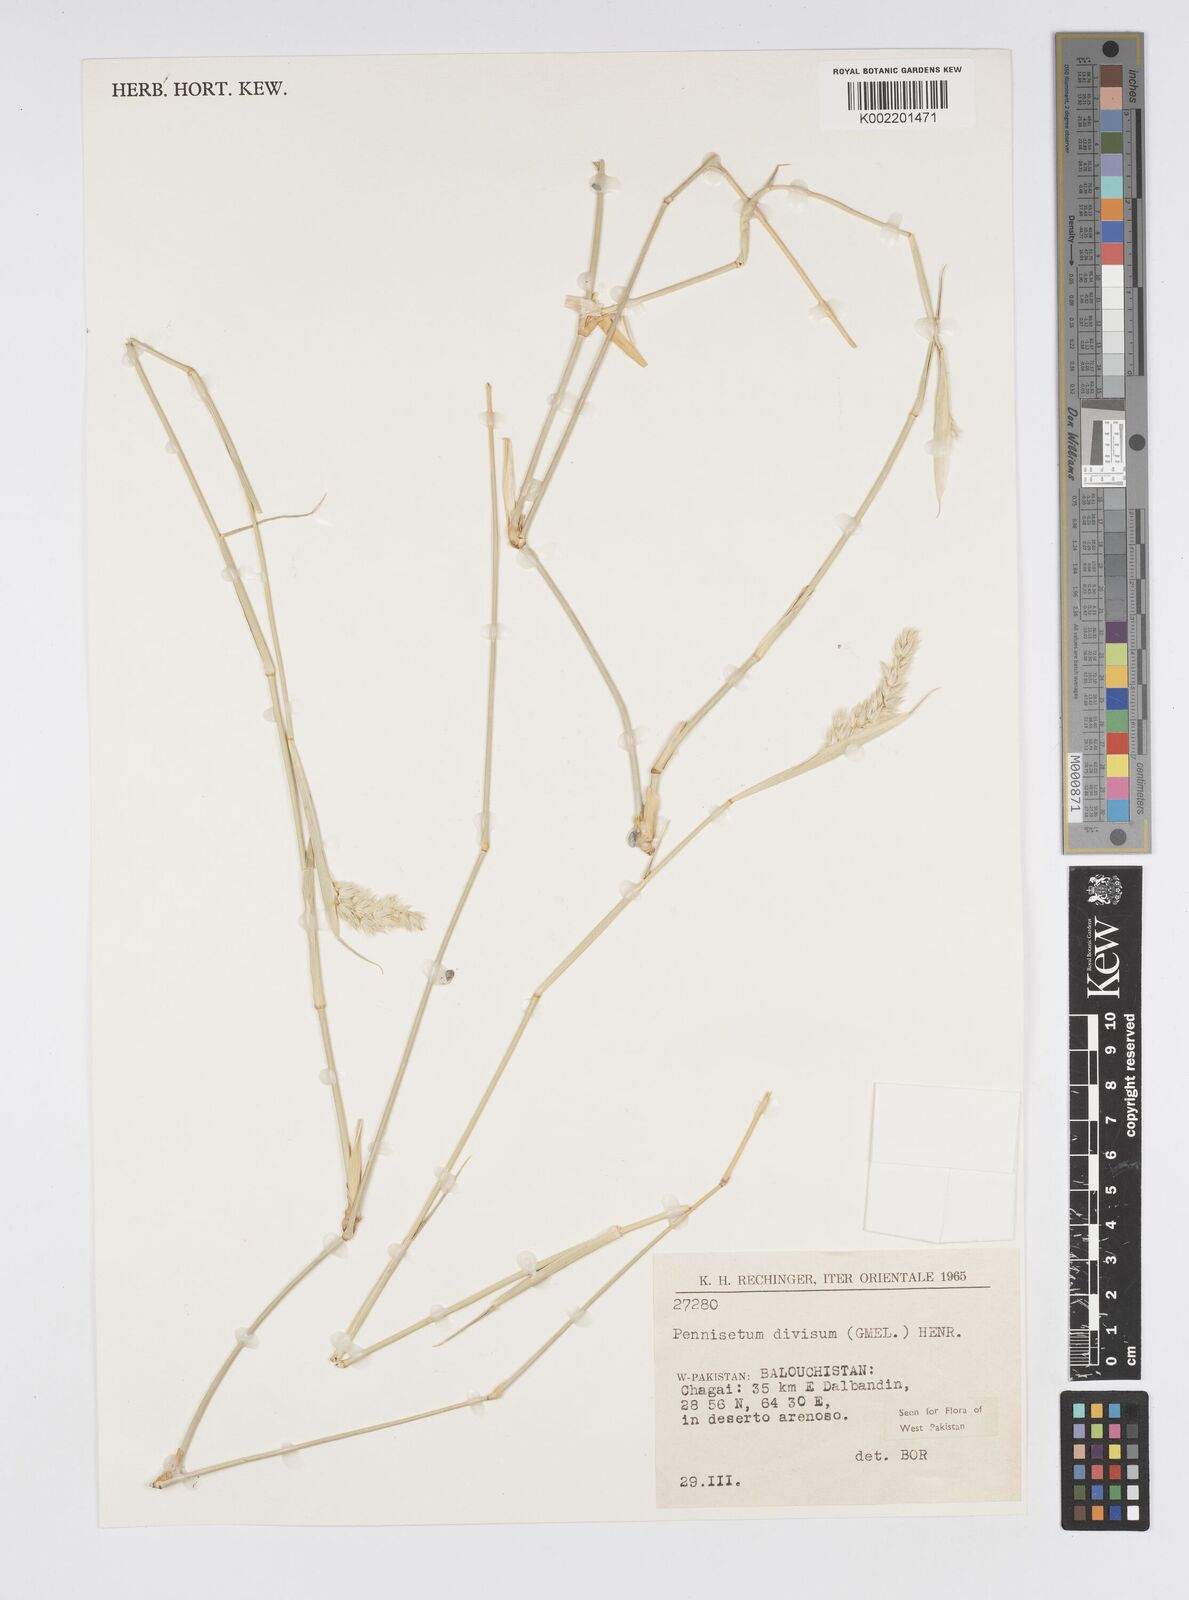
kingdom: Plantae
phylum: Tracheophyta
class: Liliopsida
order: Poales
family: Poaceae
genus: Cenchrus
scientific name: Cenchrus divisus
